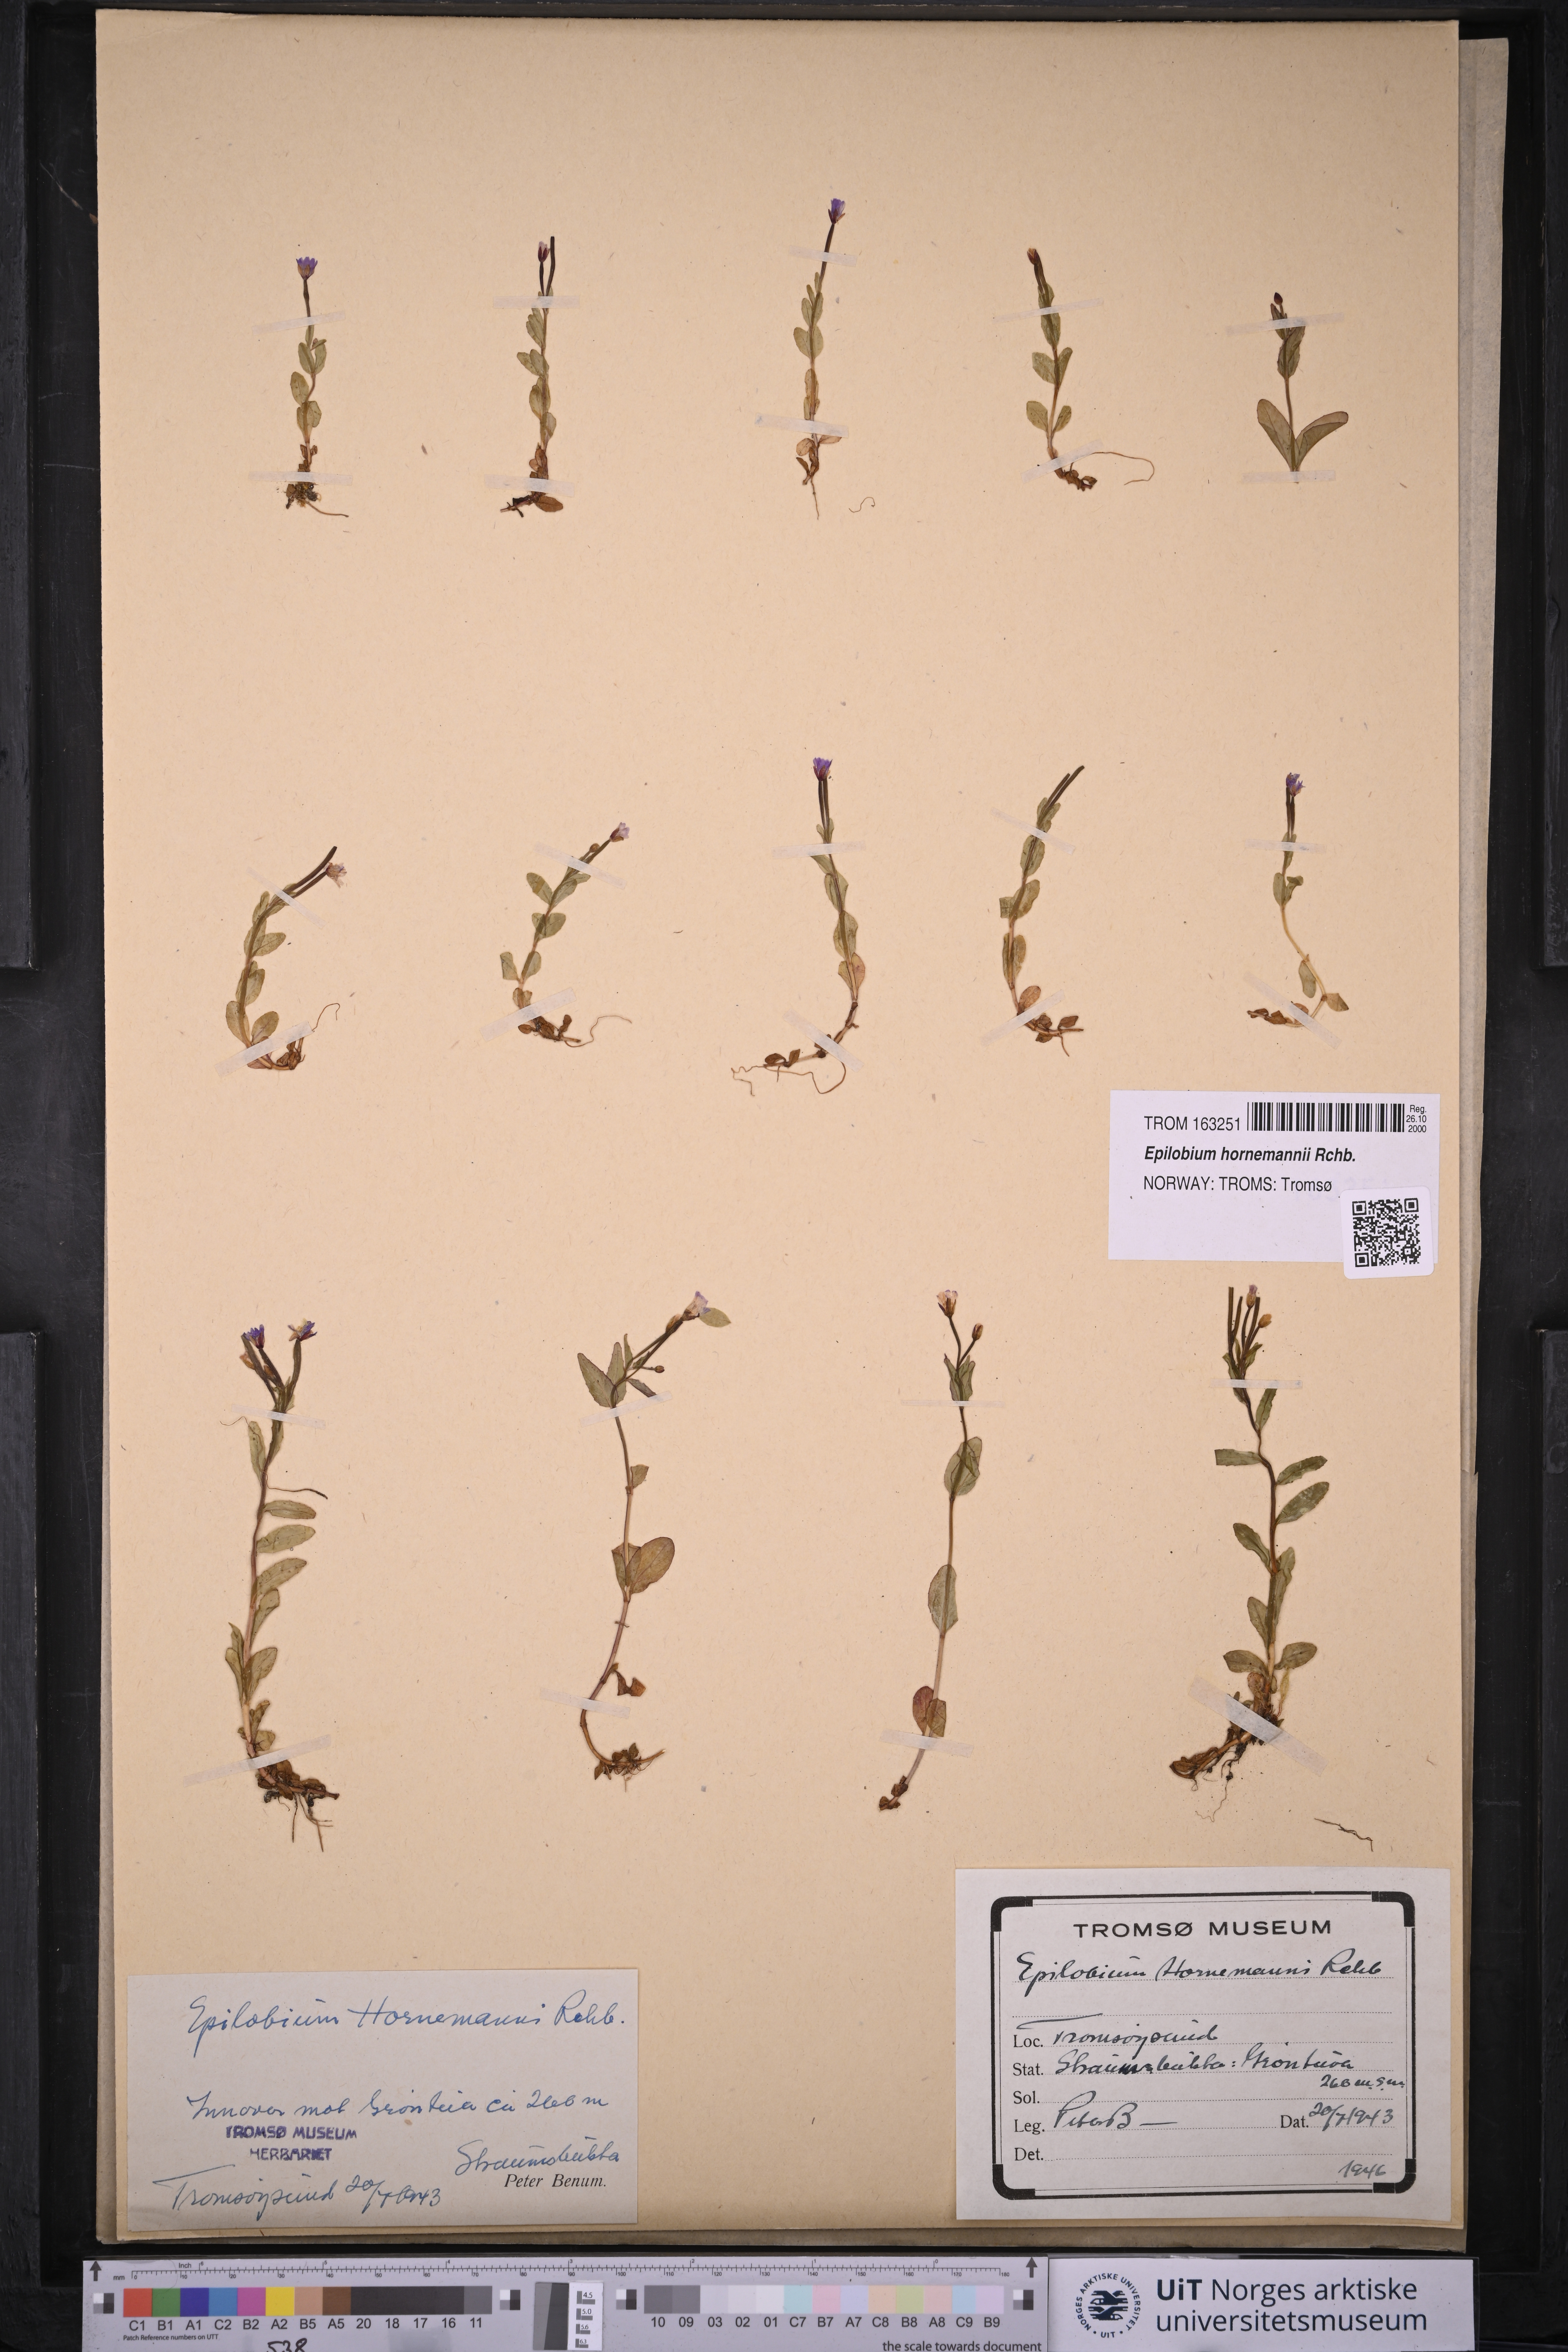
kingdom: Plantae
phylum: Tracheophyta
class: Magnoliopsida
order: Myrtales
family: Onagraceae
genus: Epilobium
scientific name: Epilobium hornemannii
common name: Hornemann's willowherb
